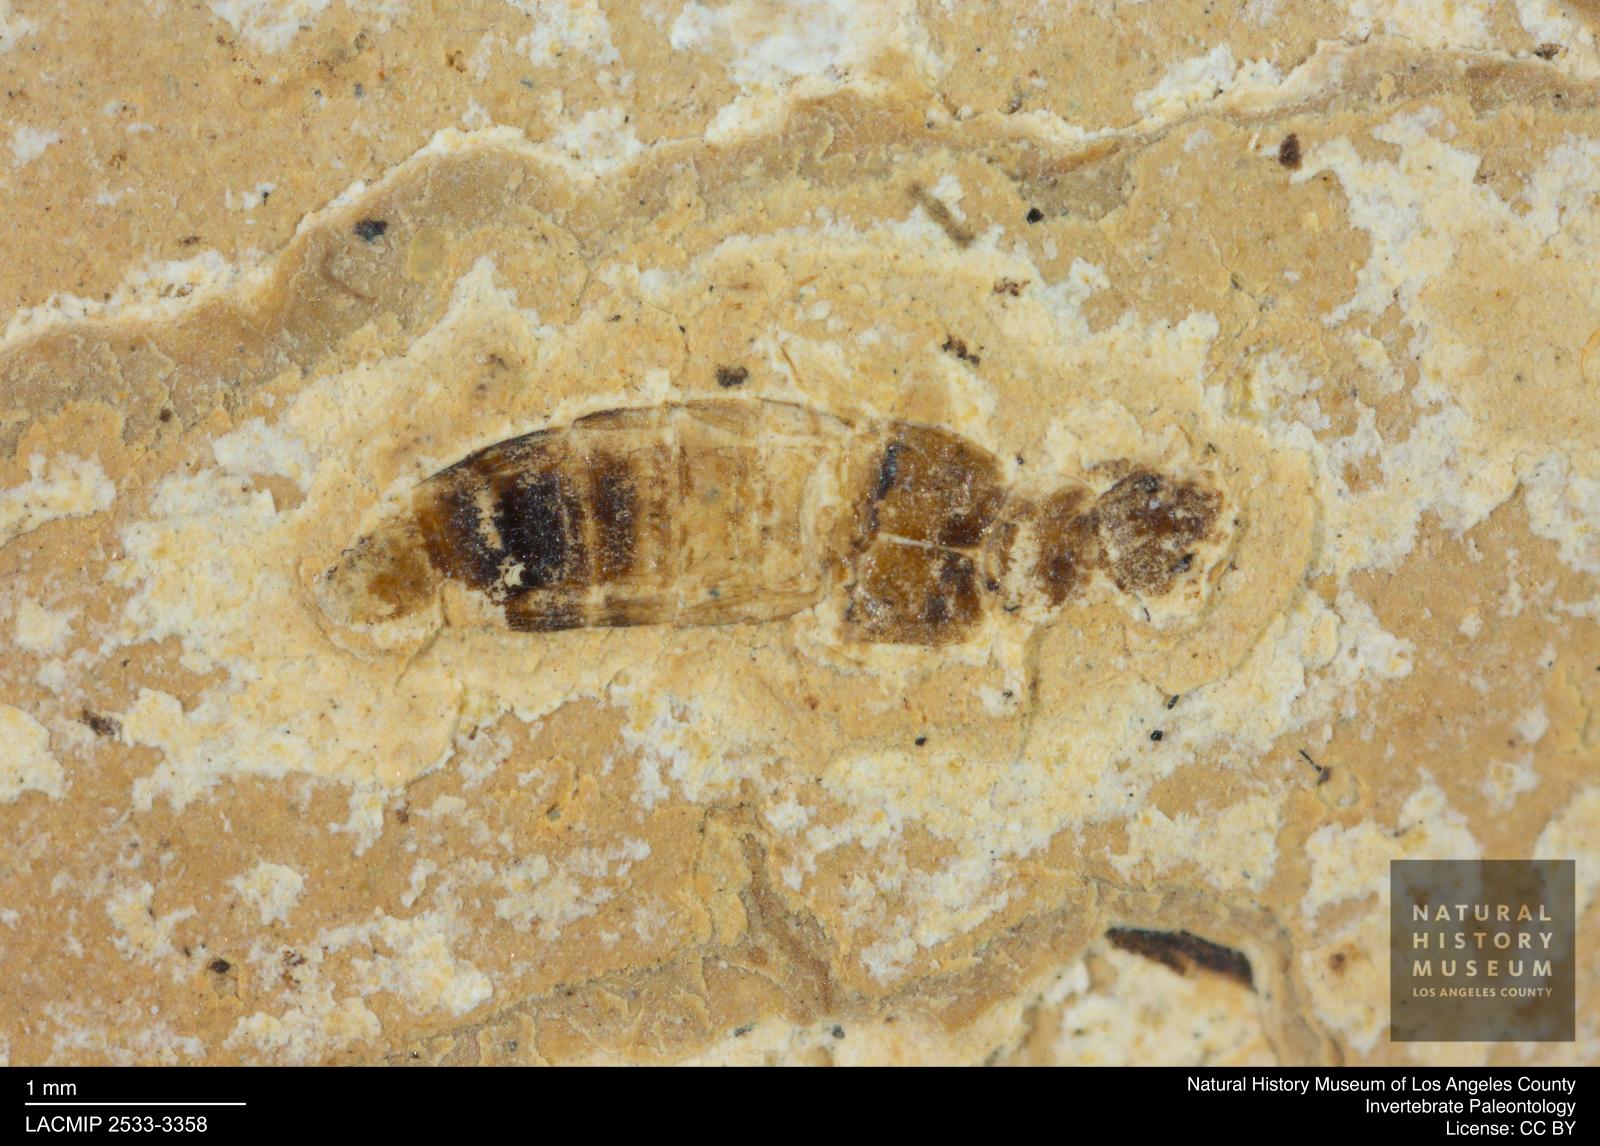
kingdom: Animalia
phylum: Arthropoda
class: Insecta
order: Coleoptera
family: Staphylinidae
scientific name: Staphylinidae
